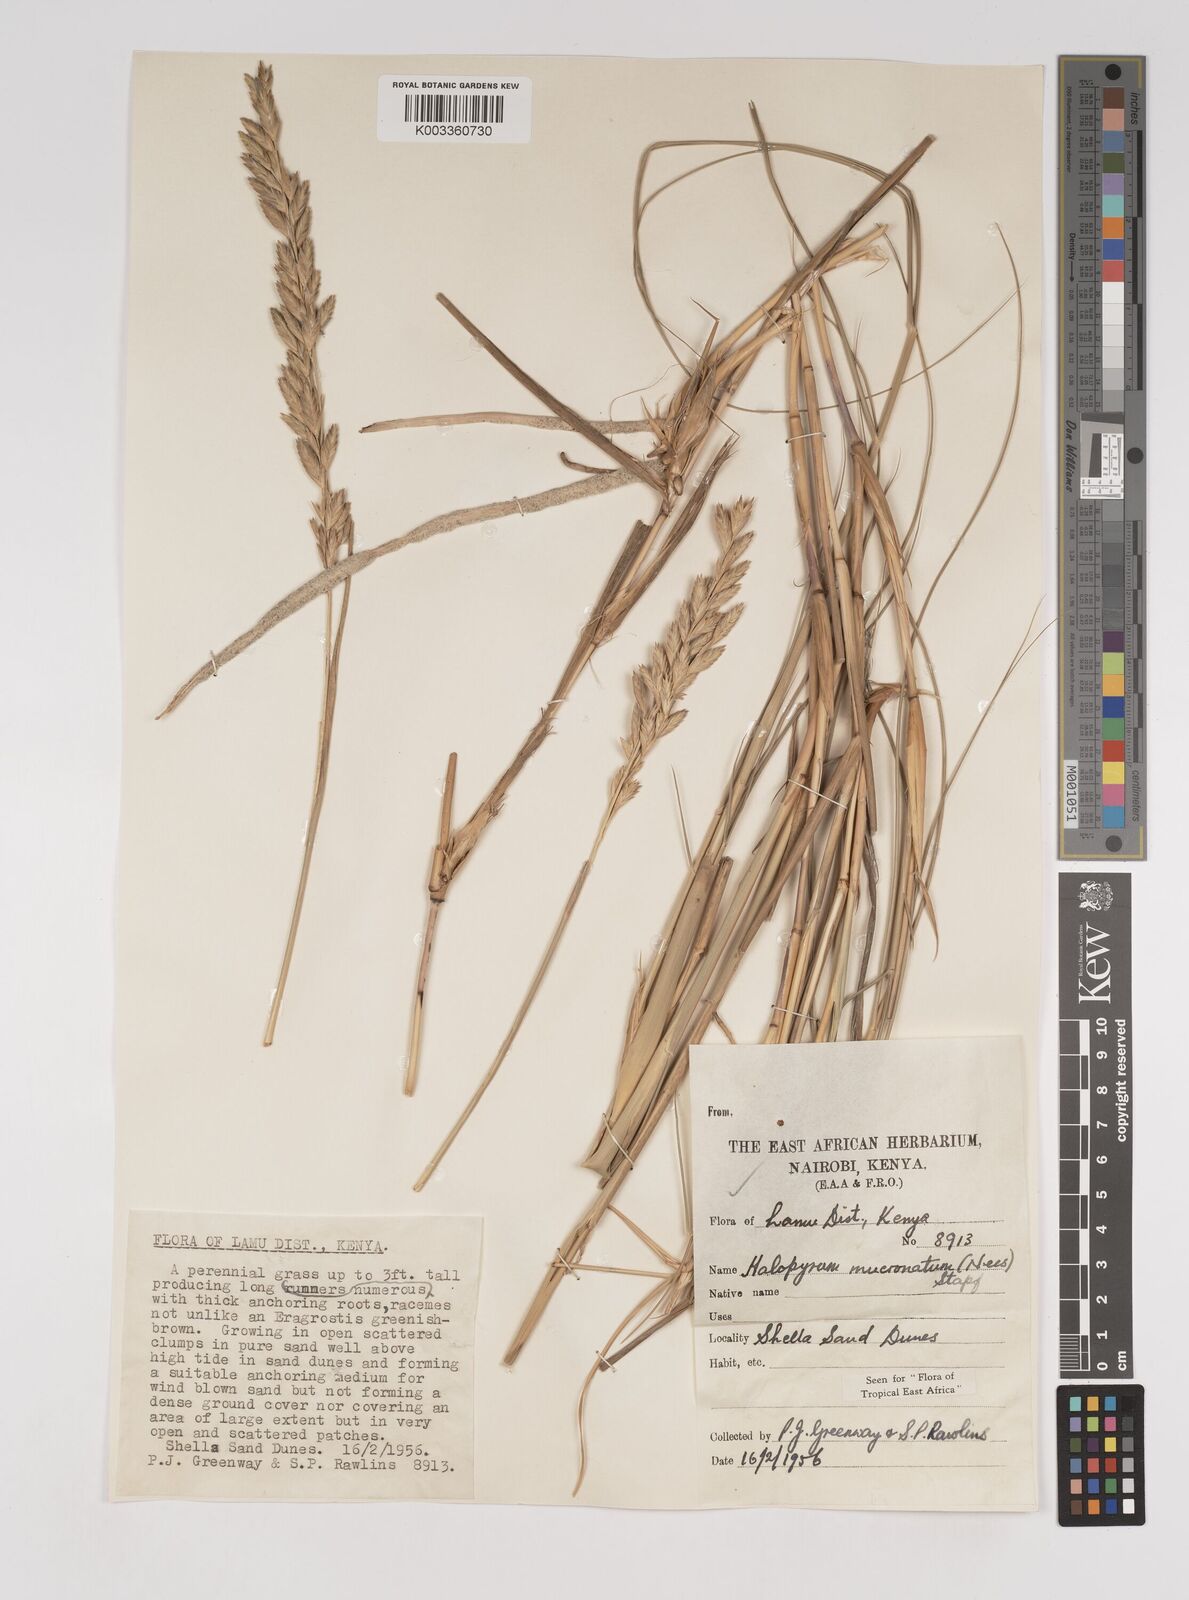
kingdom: Plantae
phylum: Tracheophyta
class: Liliopsida
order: Poales
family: Poaceae
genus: Halopyrum
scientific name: Halopyrum mucronatum
